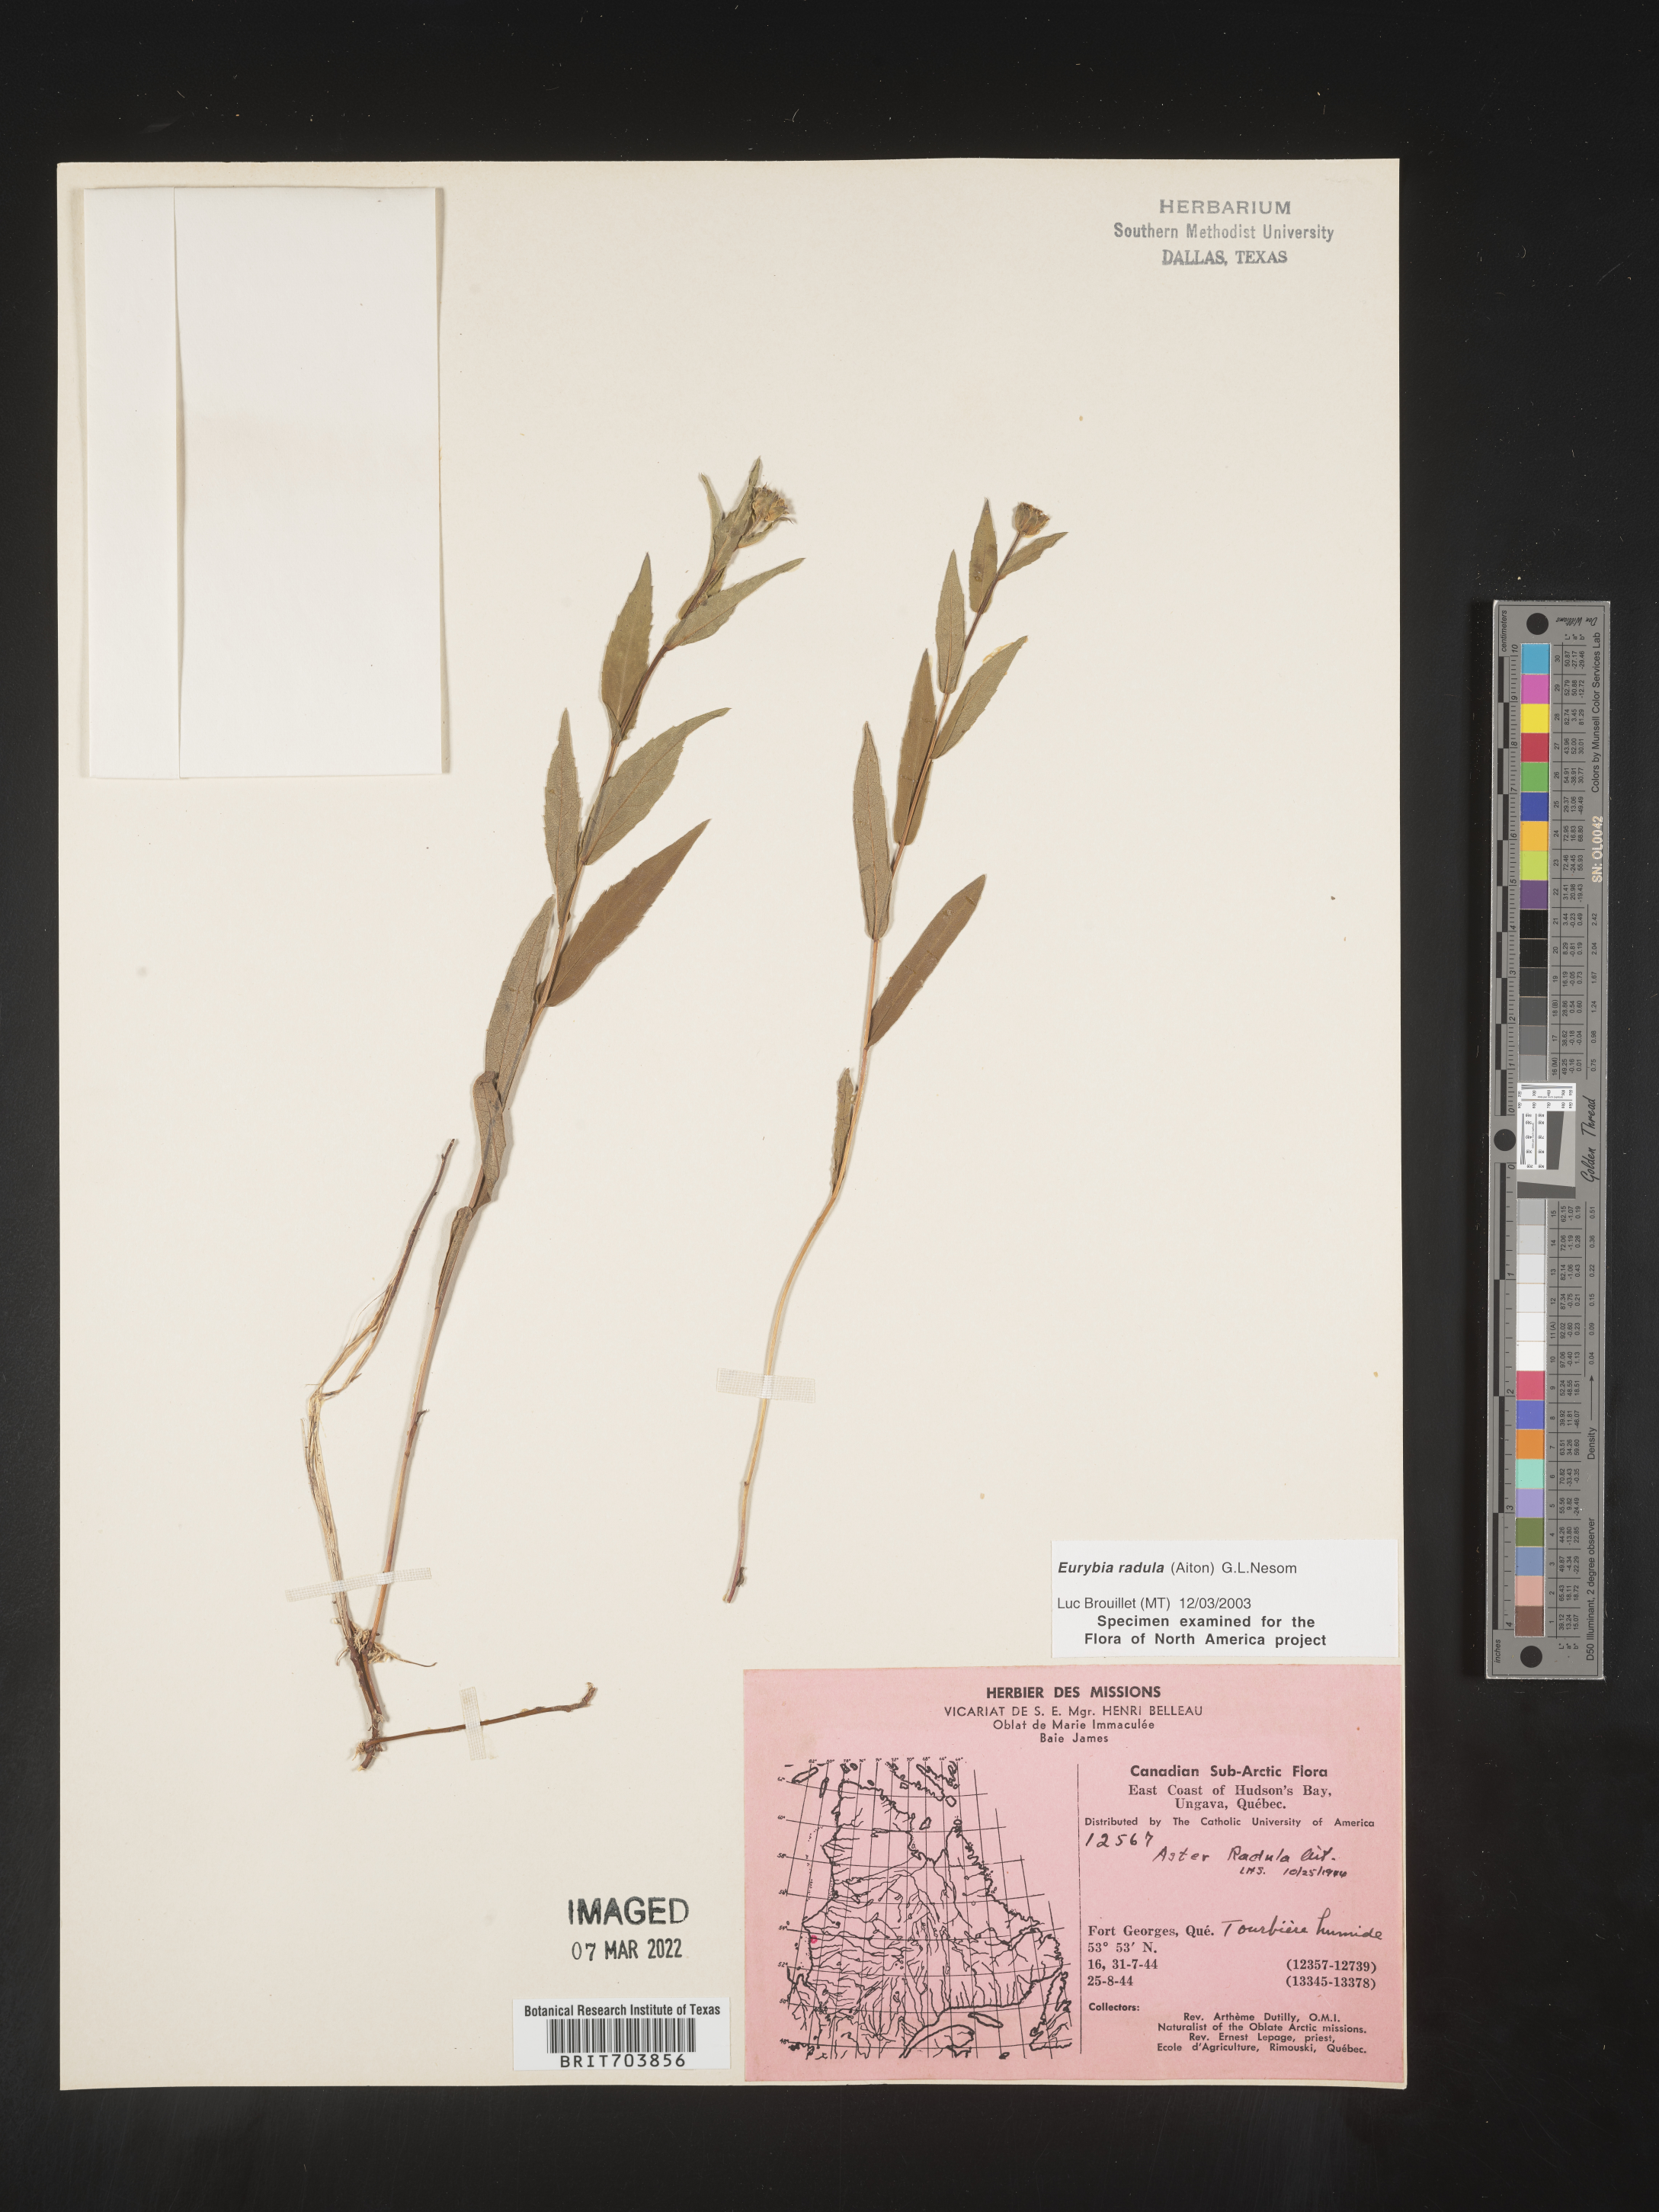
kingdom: Plantae
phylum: Tracheophyta
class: Magnoliopsida
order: Asterales
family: Asteraceae
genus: Eurybia
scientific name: Eurybia radula
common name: Low rough aster
